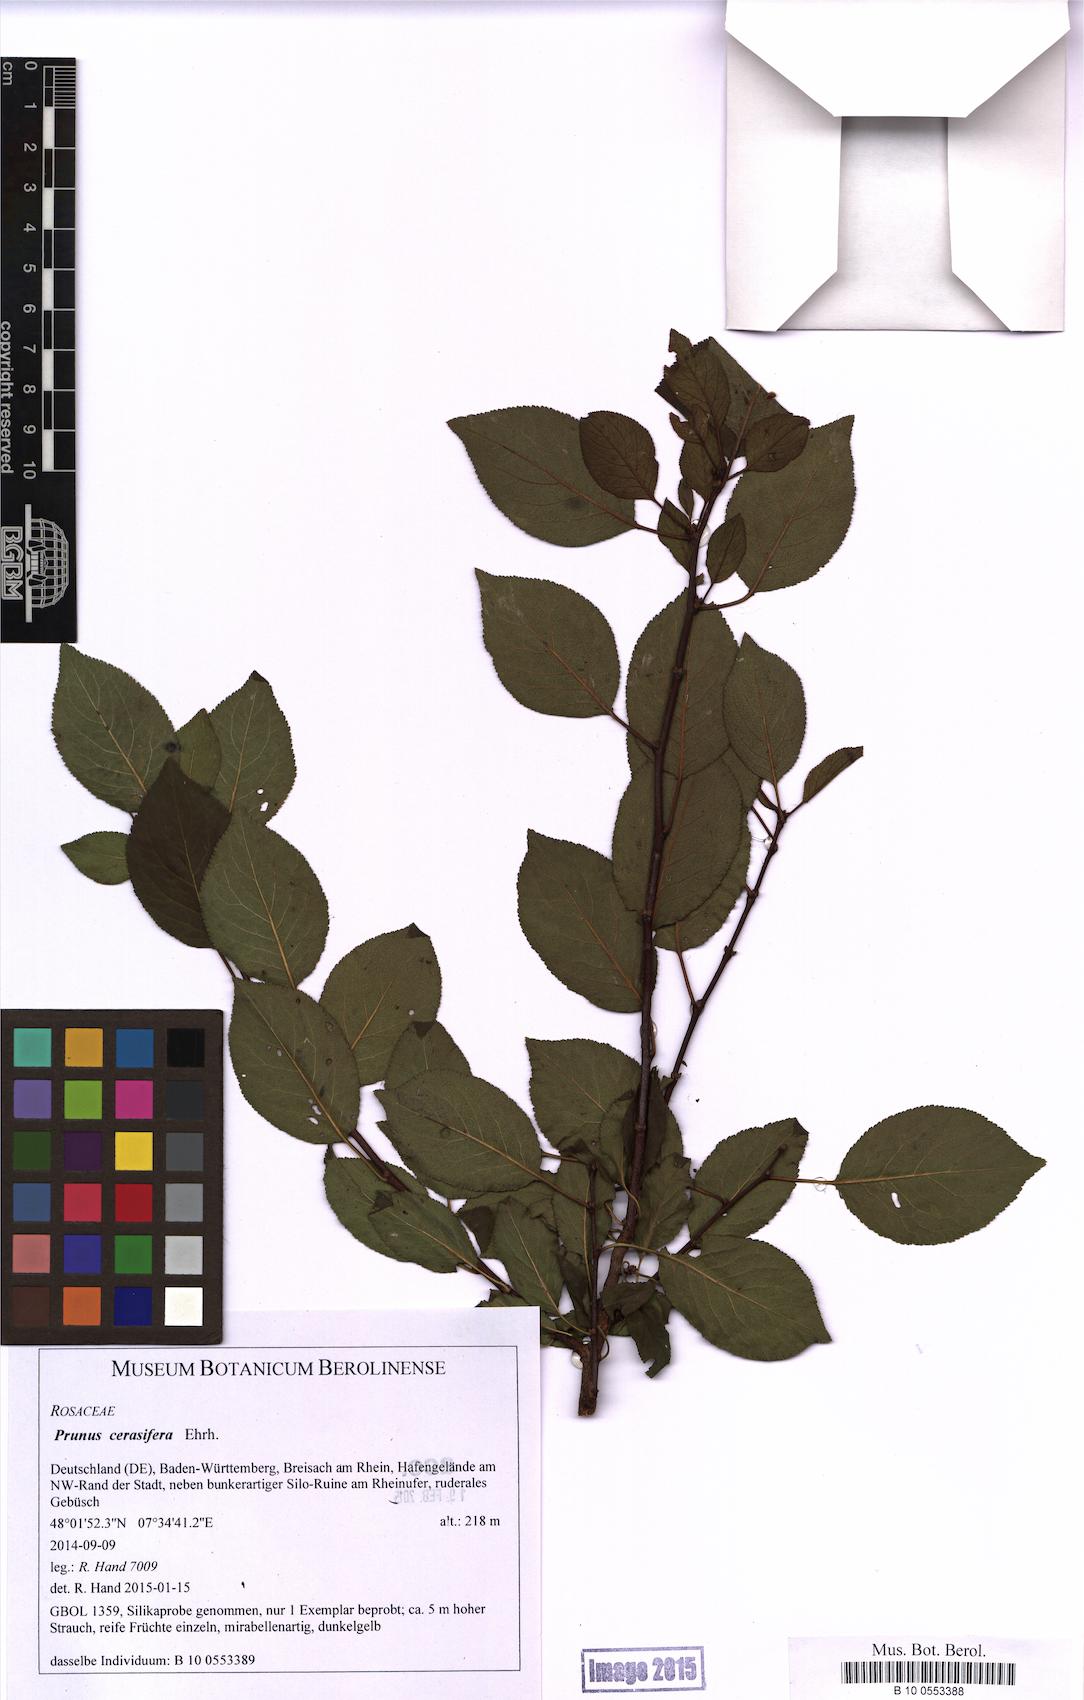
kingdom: Plantae
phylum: Tracheophyta
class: Magnoliopsida
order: Rosales
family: Rosaceae
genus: Prunus
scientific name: Prunus cerasifera
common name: Cherry plum
